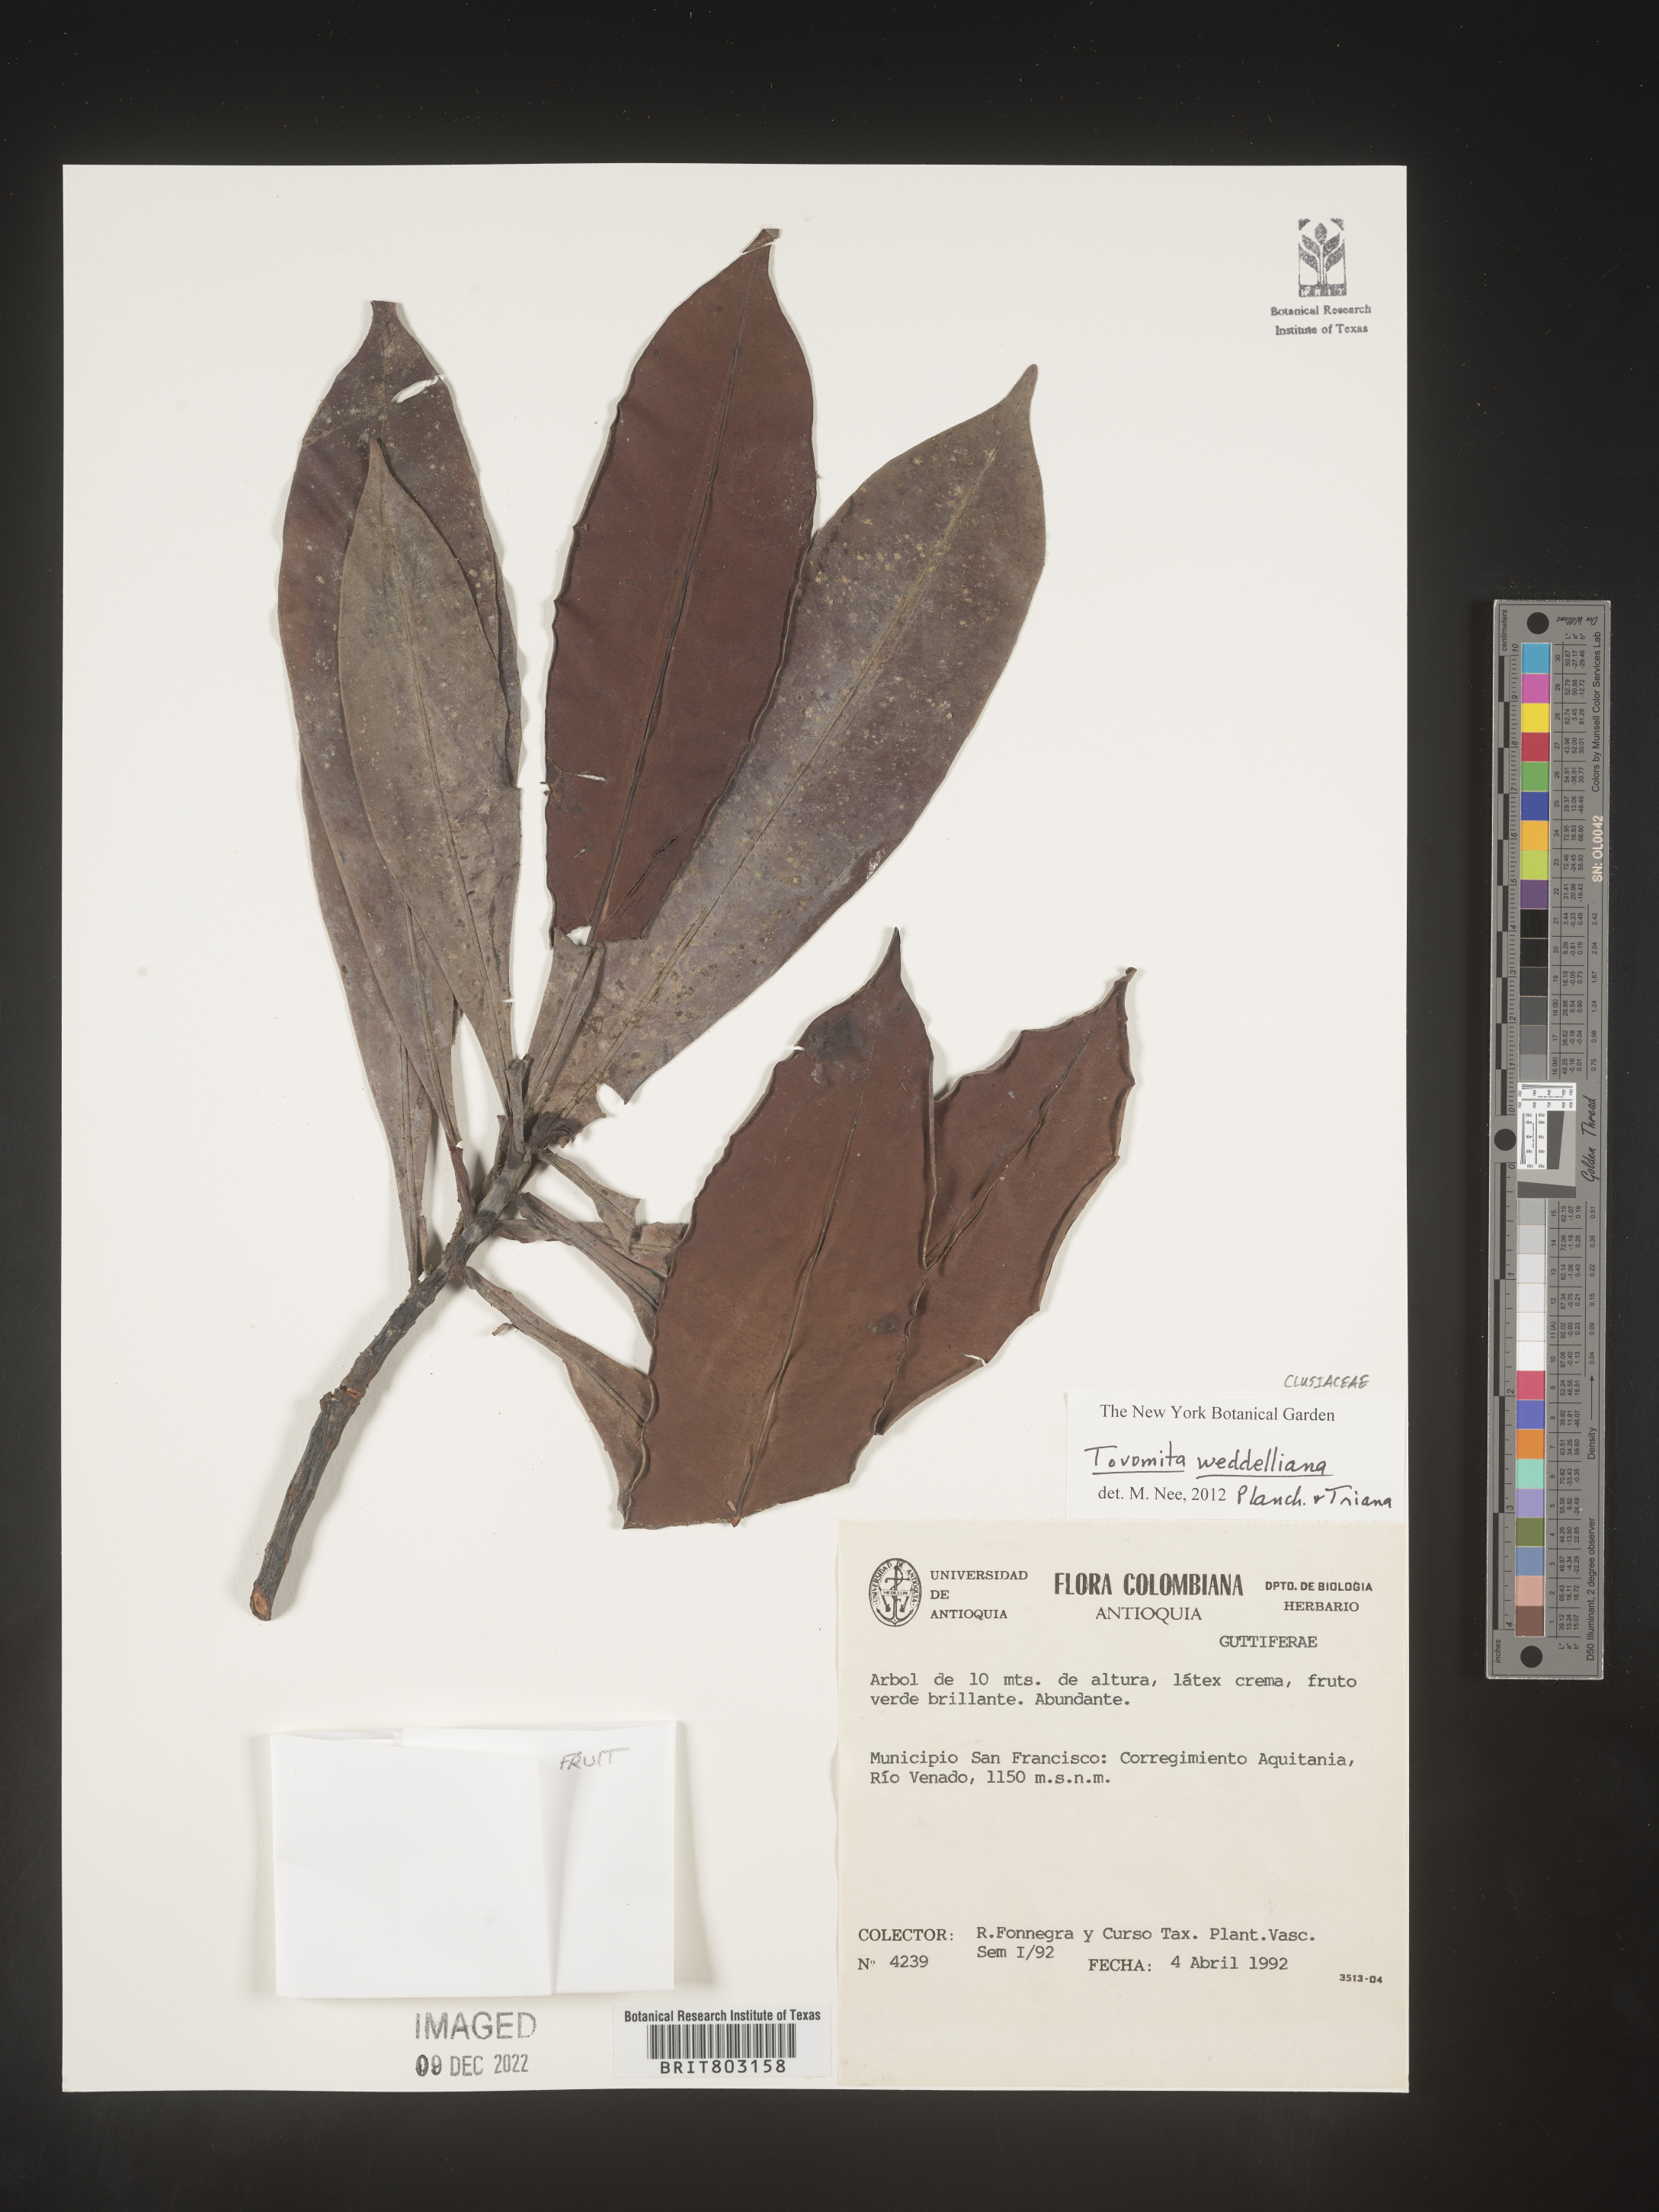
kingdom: Plantae
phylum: Tracheophyta
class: Magnoliopsida
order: Malpighiales
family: Clusiaceae
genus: Arawakia
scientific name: Arawakia weddelliana
